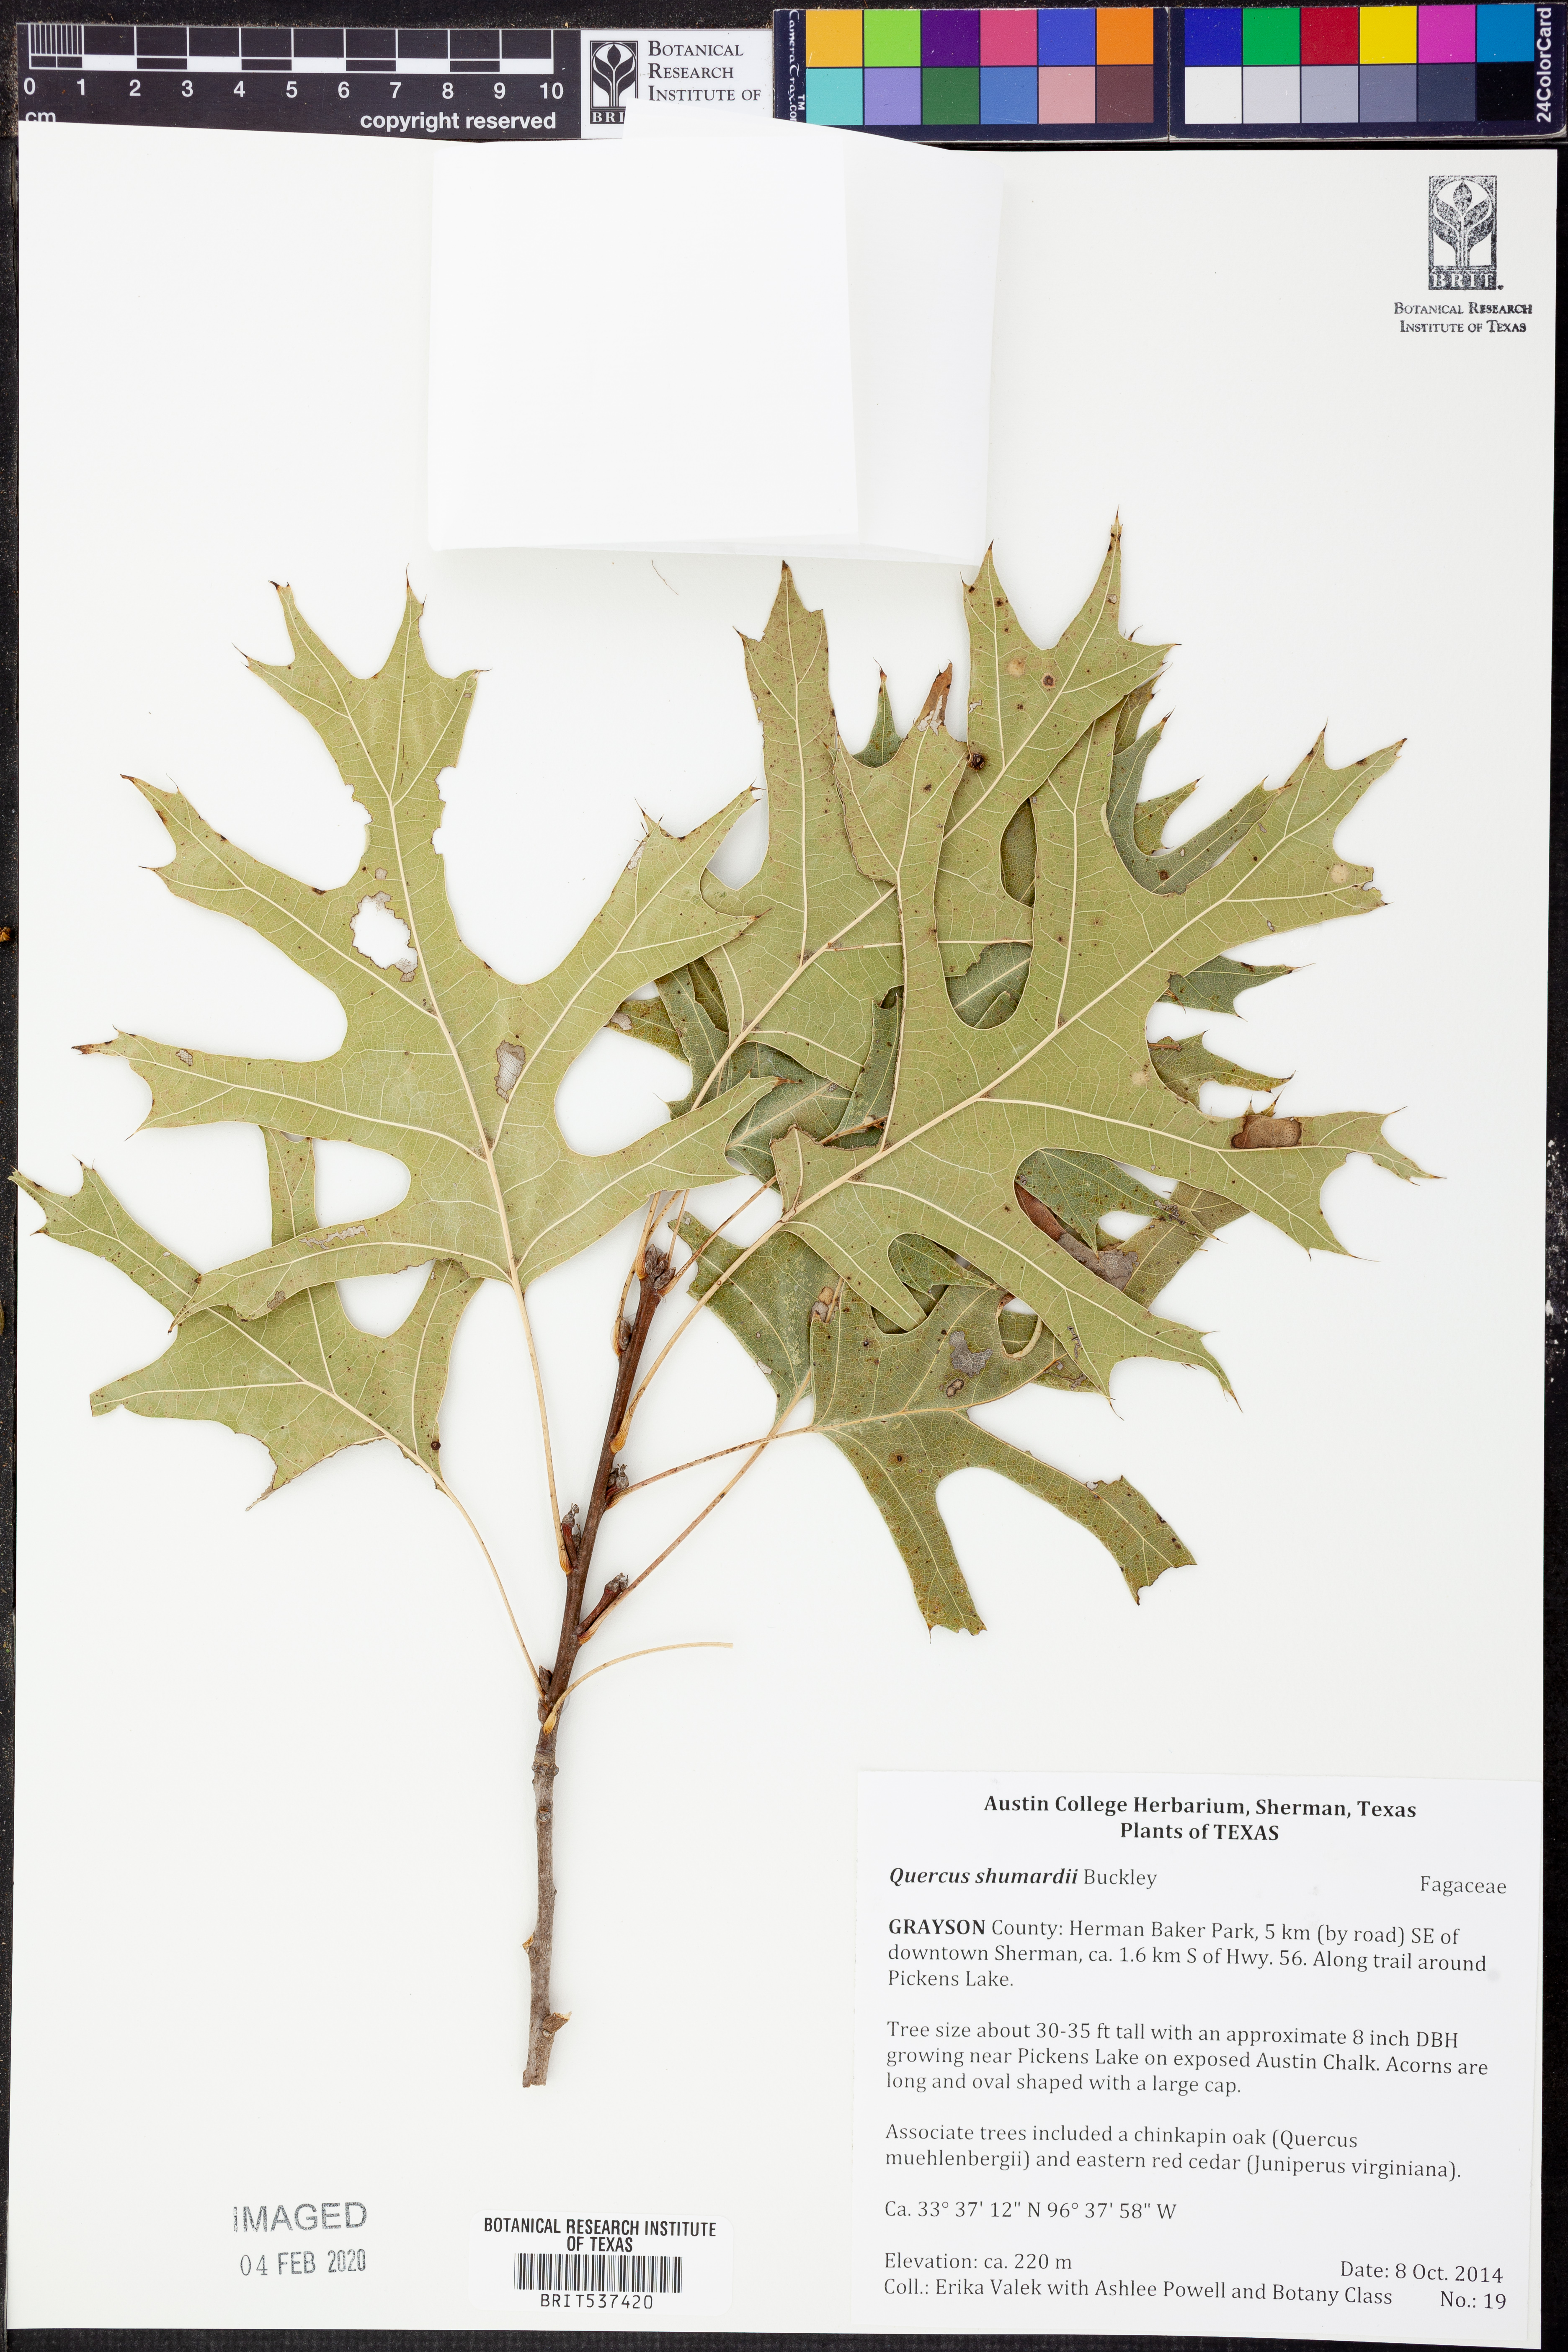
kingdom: Plantae
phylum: Tracheophyta
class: Magnoliopsida
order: Fagales
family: Fagaceae
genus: Quercus
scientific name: Quercus shumardii
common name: Shumard oak
